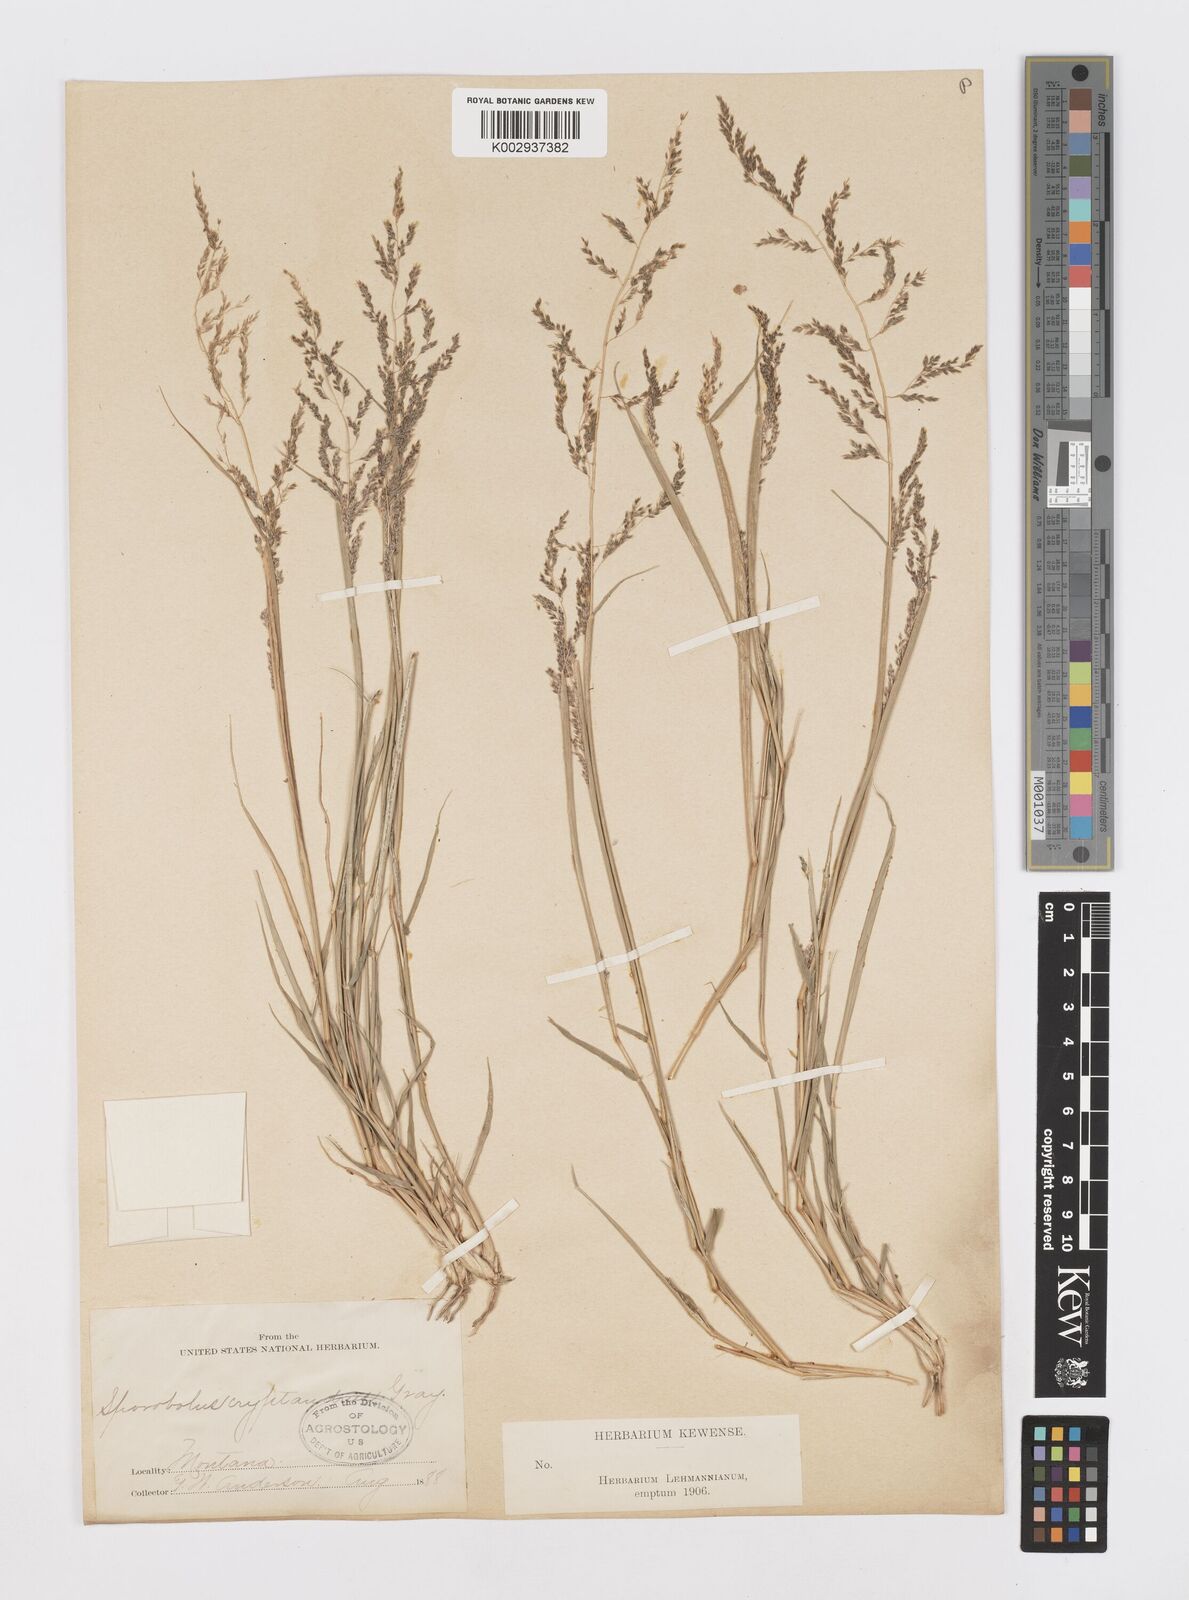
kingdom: Plantae
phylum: Tracheophyta
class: Liliopsida
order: Poales
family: Poaceae
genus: Sporobolus
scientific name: Sporobolus cryptandrus
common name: Sand dropseed
